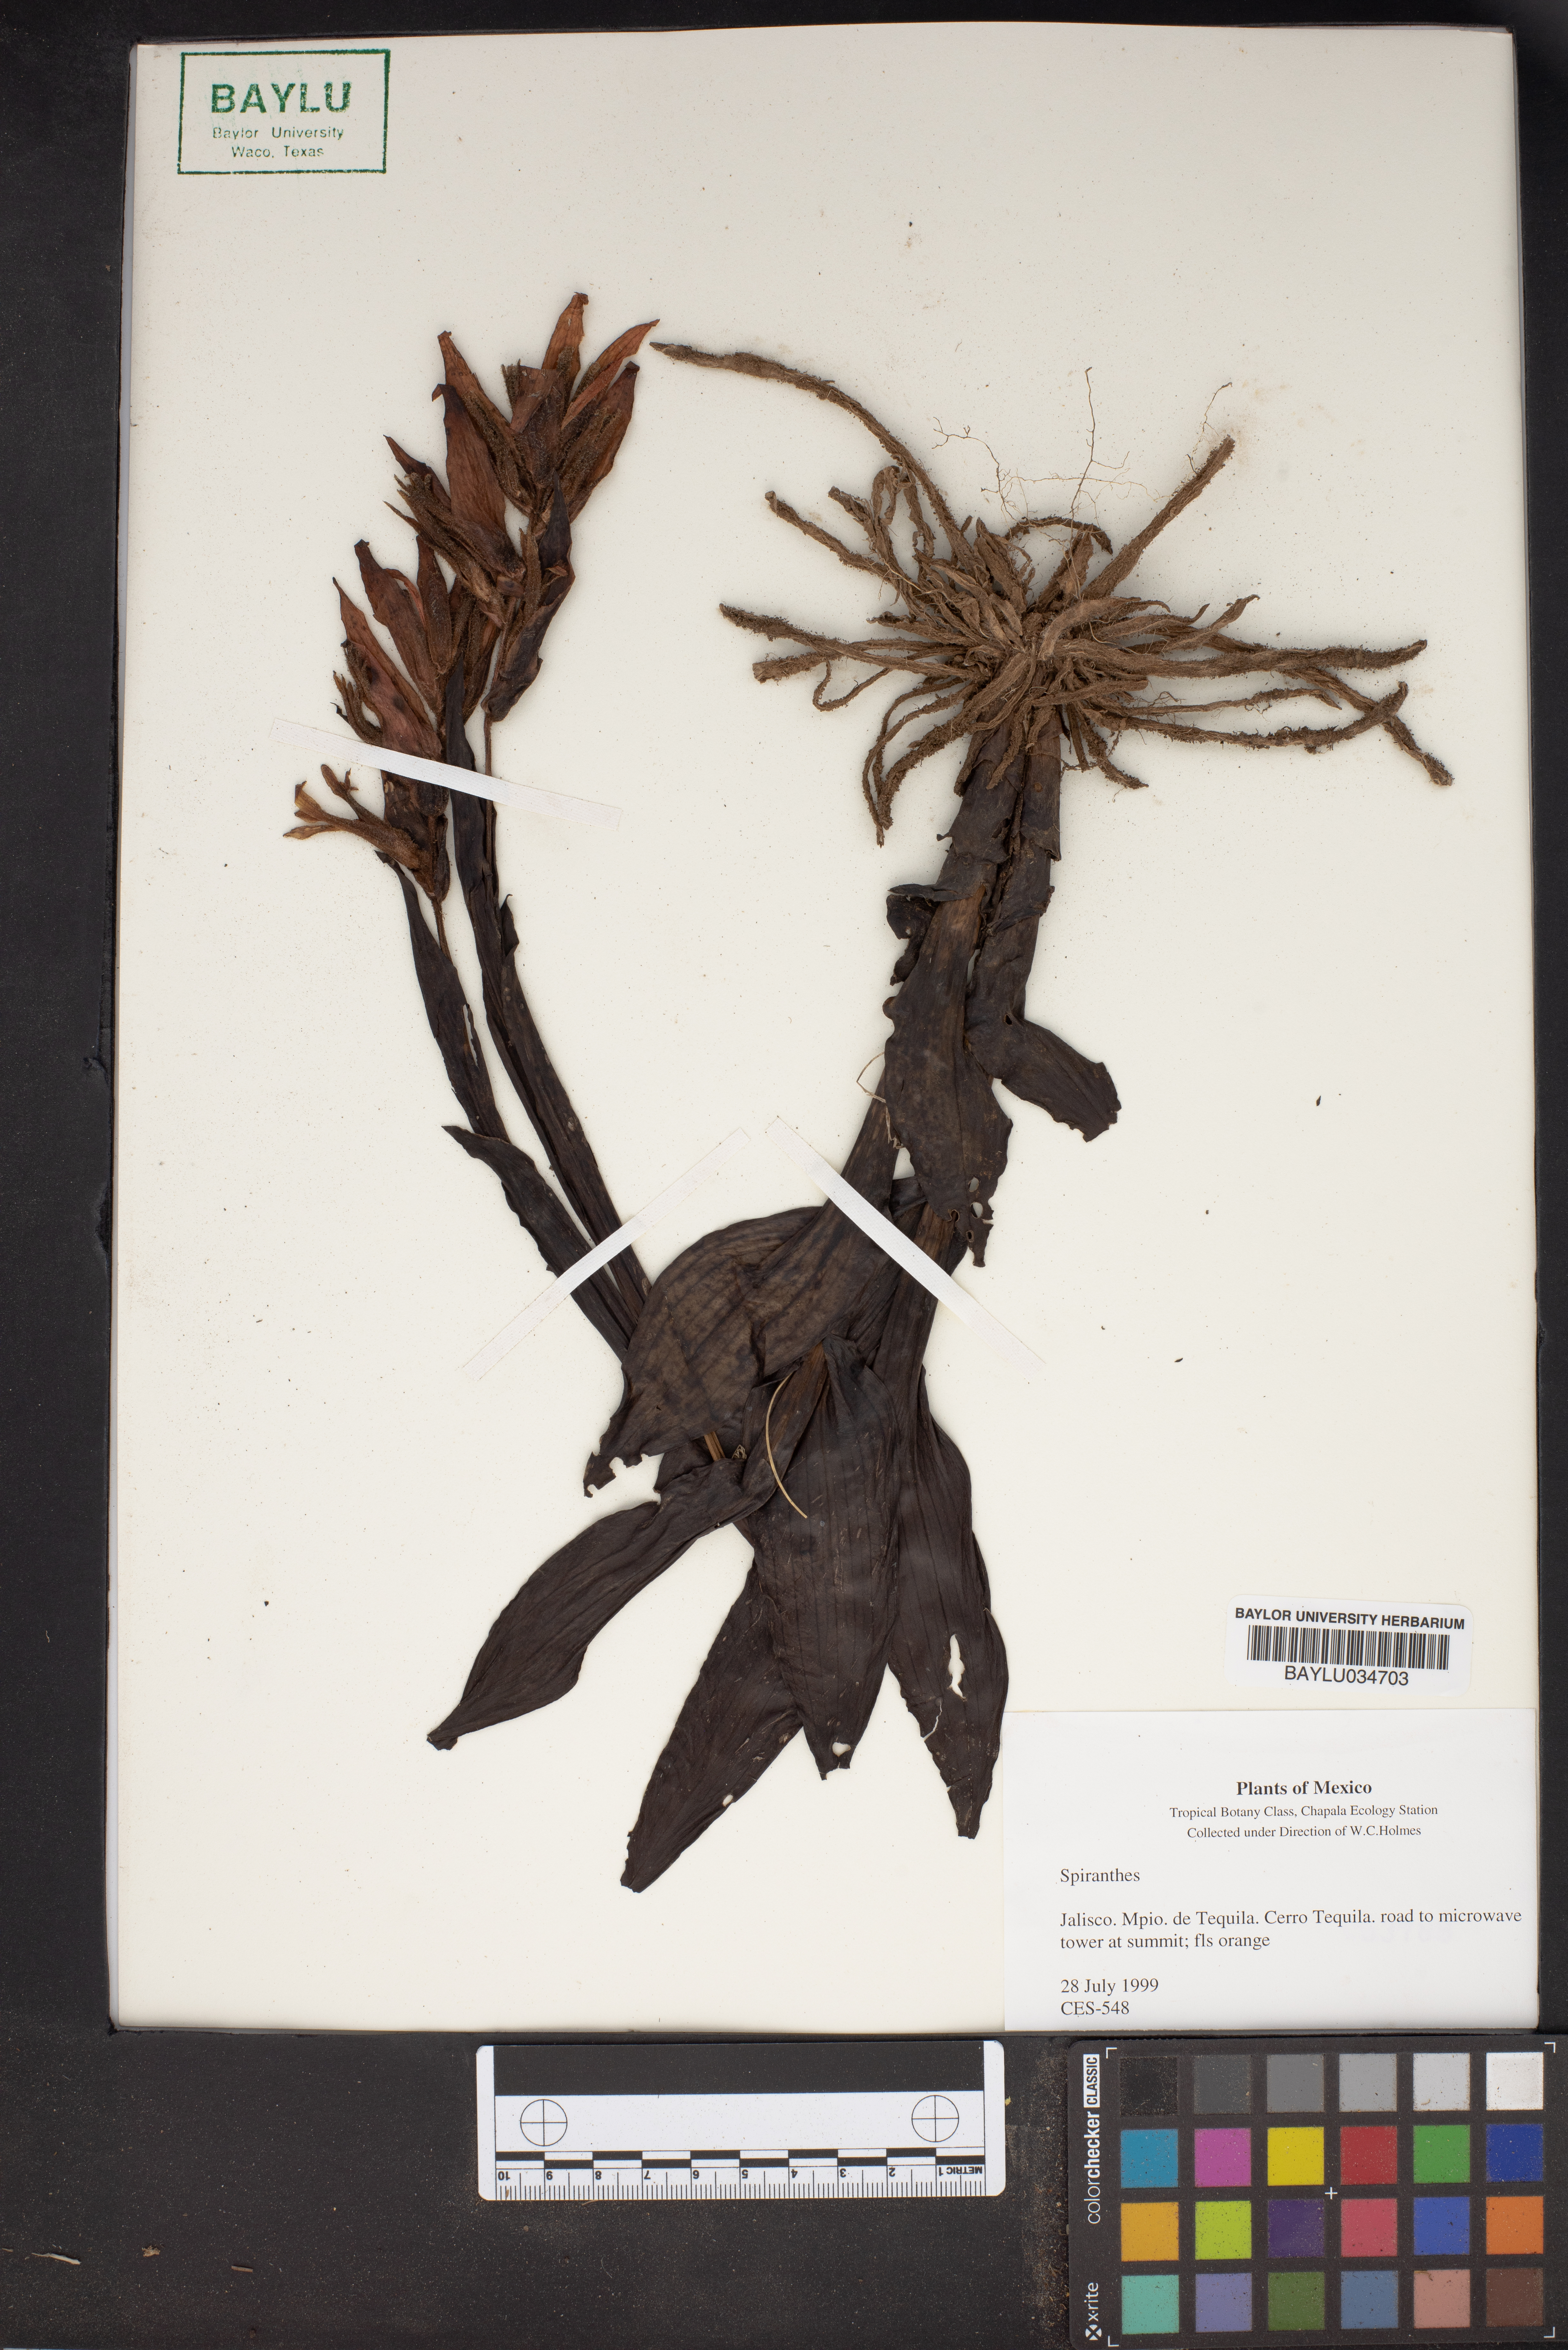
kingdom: Plantae
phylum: Tracheophyta
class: Liliopsida
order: Asparagales
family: Orchidaceae
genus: Spiranthes
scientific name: Spiranthes
